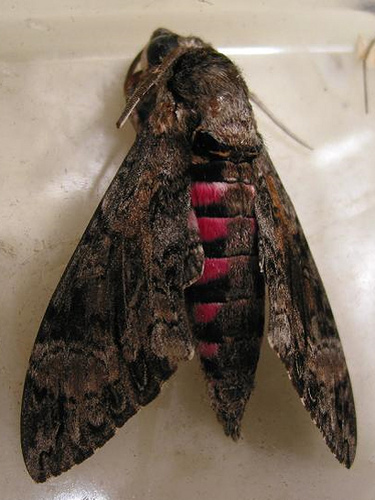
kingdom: Animalia
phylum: Arthropoda
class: Insecta
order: Lepidoptera
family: Sphingidae
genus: Agrius
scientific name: Agrius cingulata
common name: Pink-spotted hawkmoth
